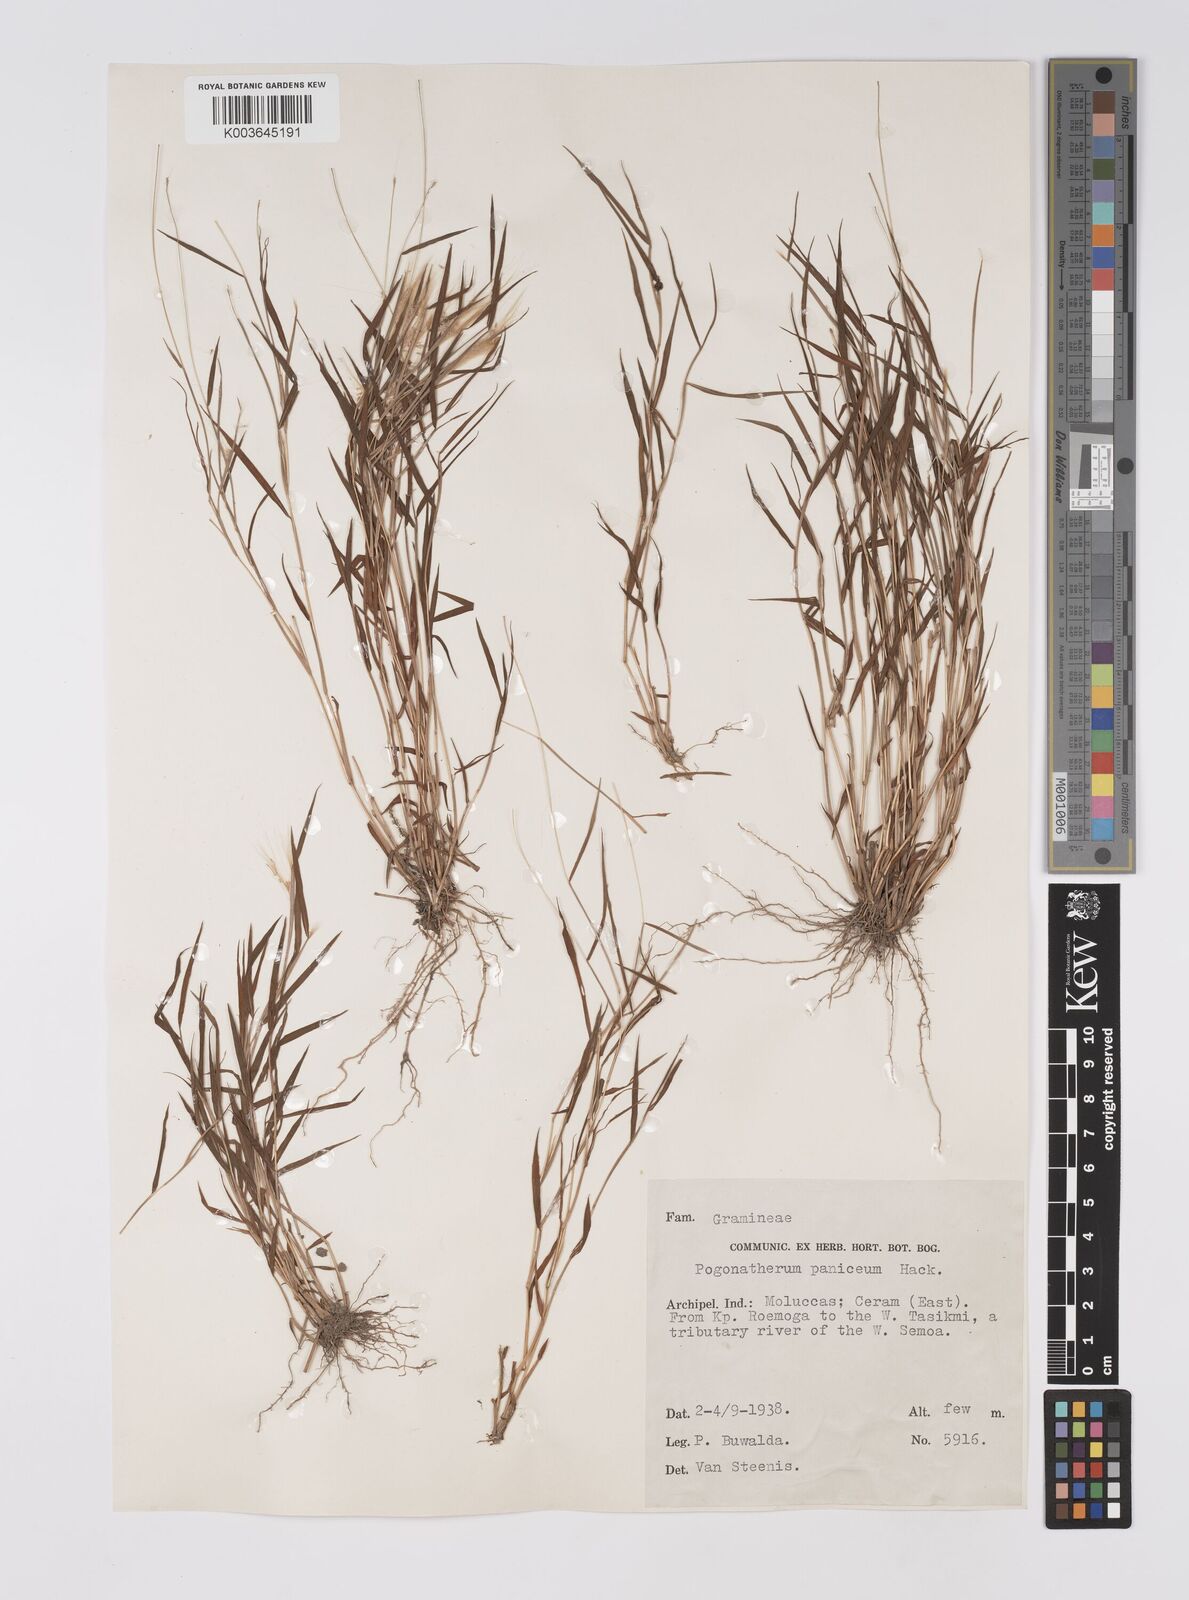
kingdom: Plantae
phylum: Tracheophyta
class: Liliopsida
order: Poales
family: Poaceae
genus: Pogonatherum
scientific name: Pogonatherum crinitum
